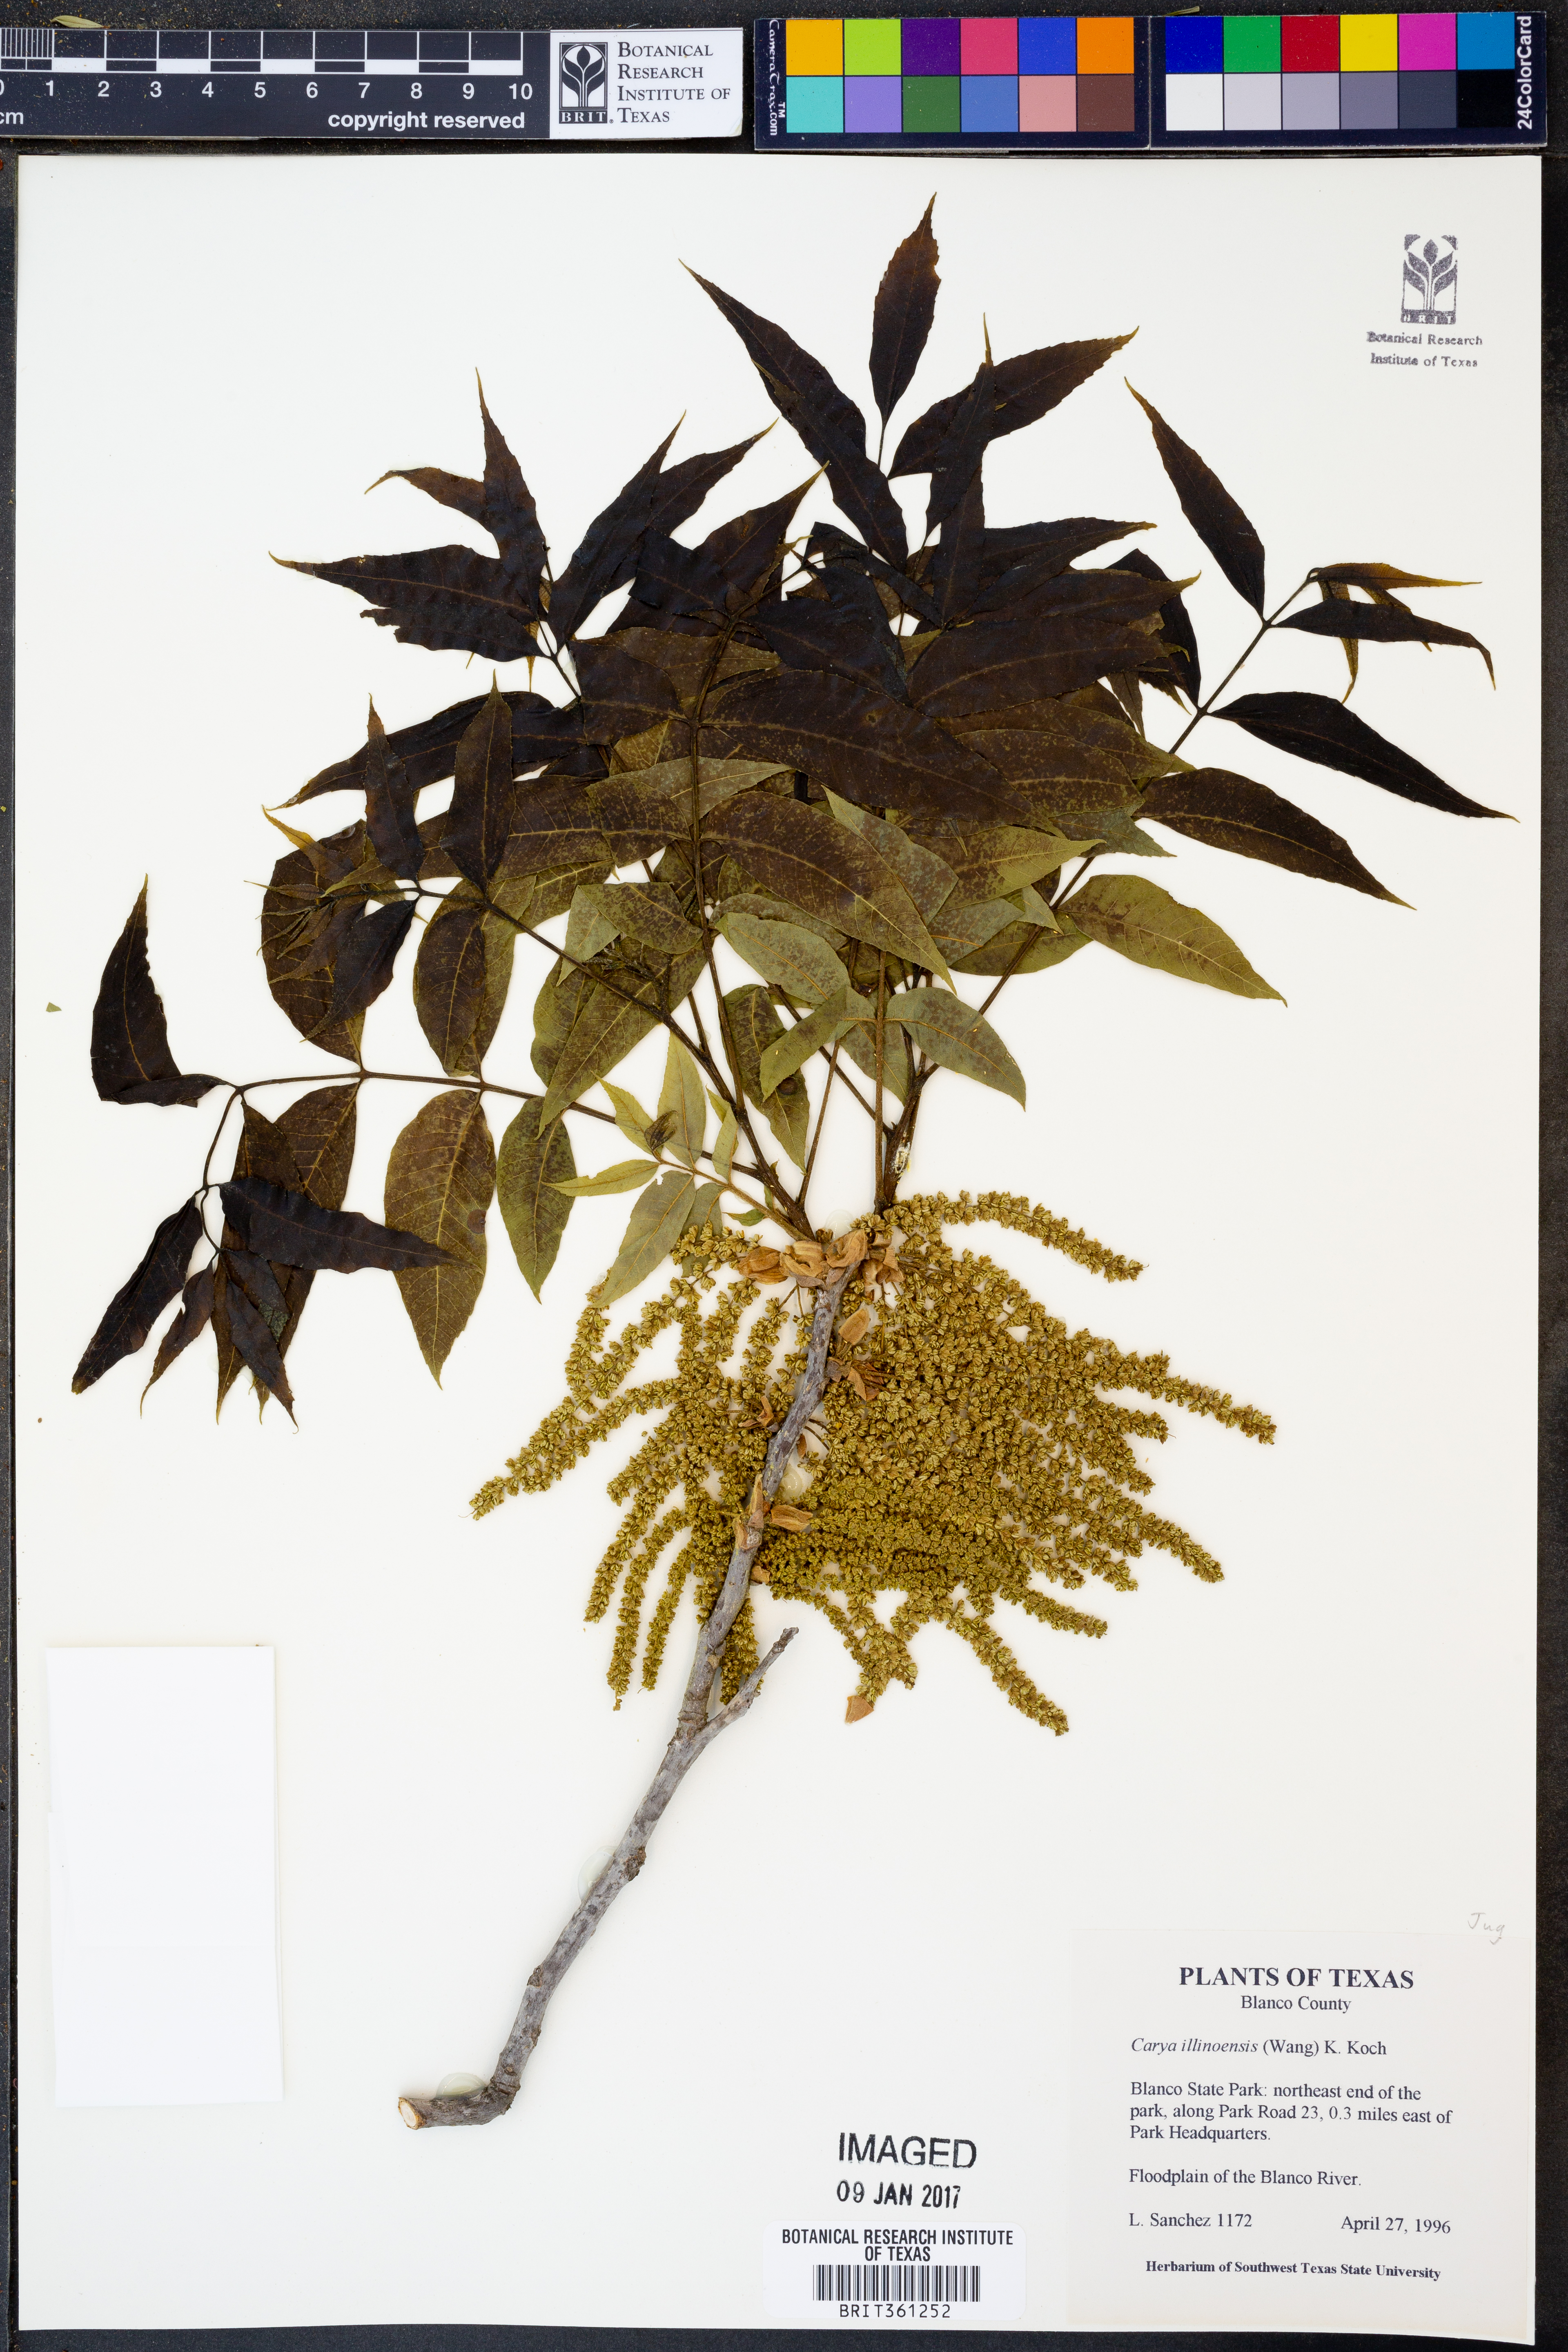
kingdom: Plantae
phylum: Tracheophyta
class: Magnoliopsida
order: Fagales
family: Juglandaceae
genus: Carya
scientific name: Carya illinoinensis
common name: Pecan
